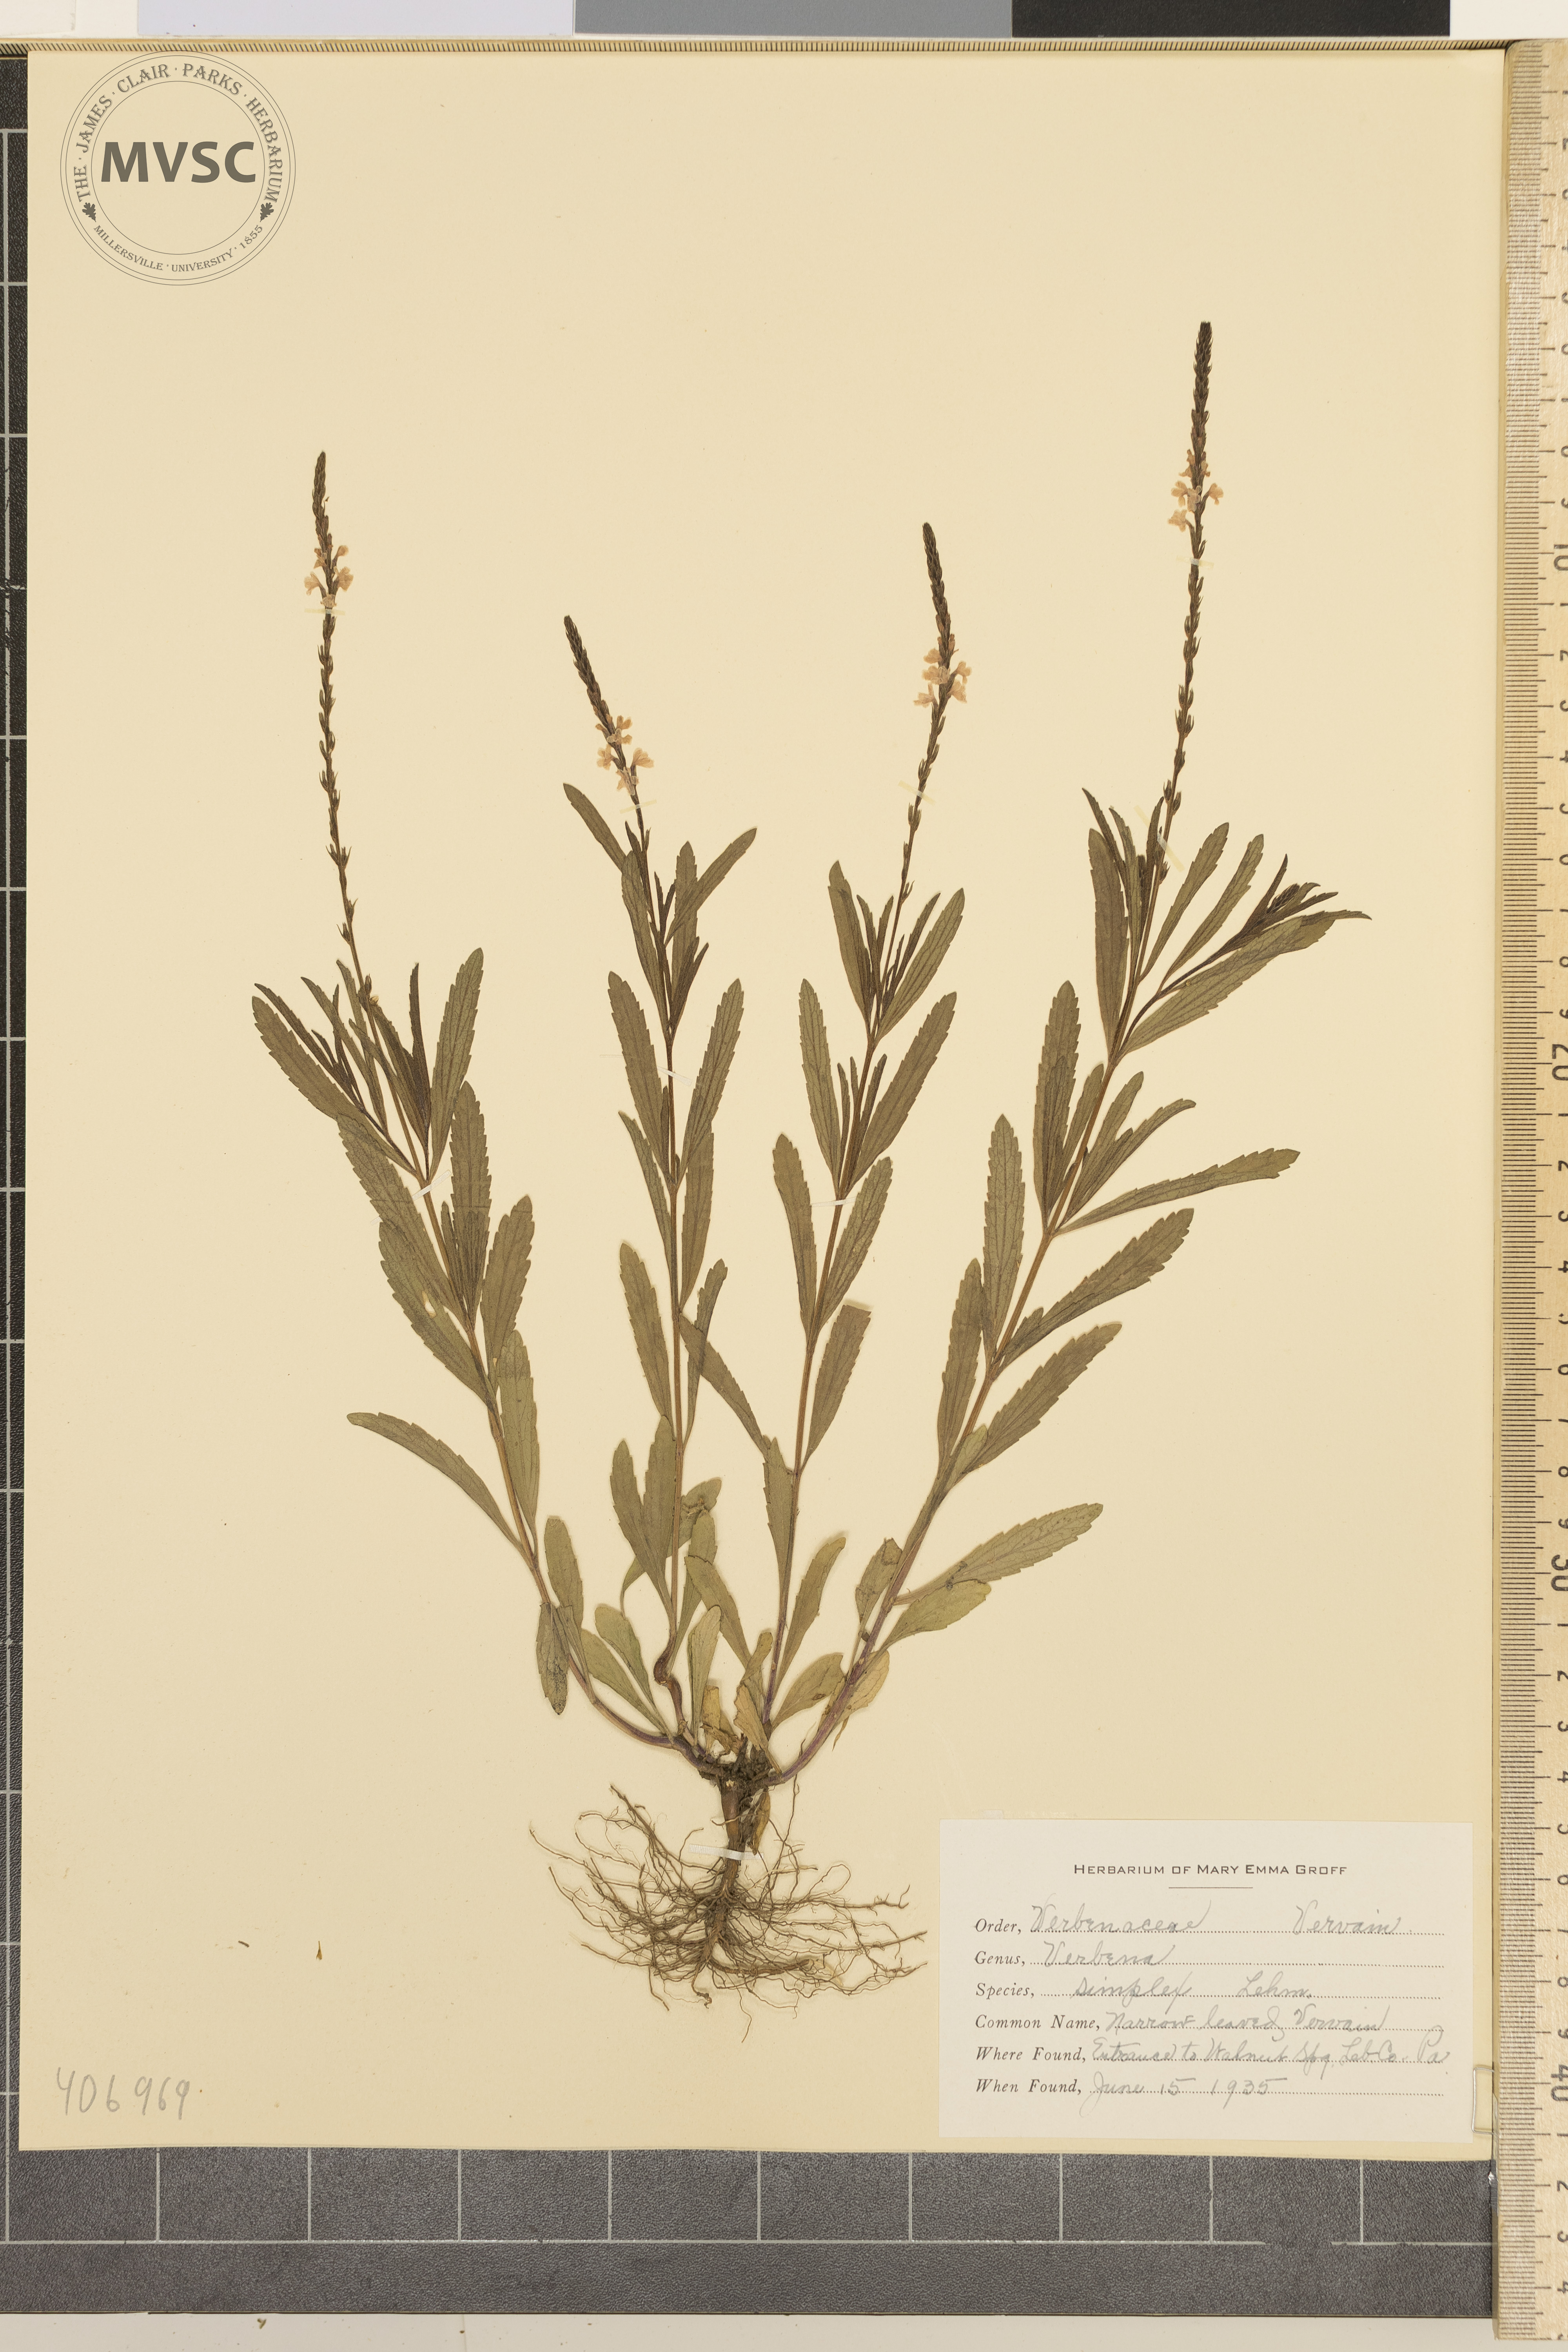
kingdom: Plantae
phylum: Tracheophyta
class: Magnoliopsida
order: Lamiales
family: Verbenaceae
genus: Verbena
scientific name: Verbena simplex
